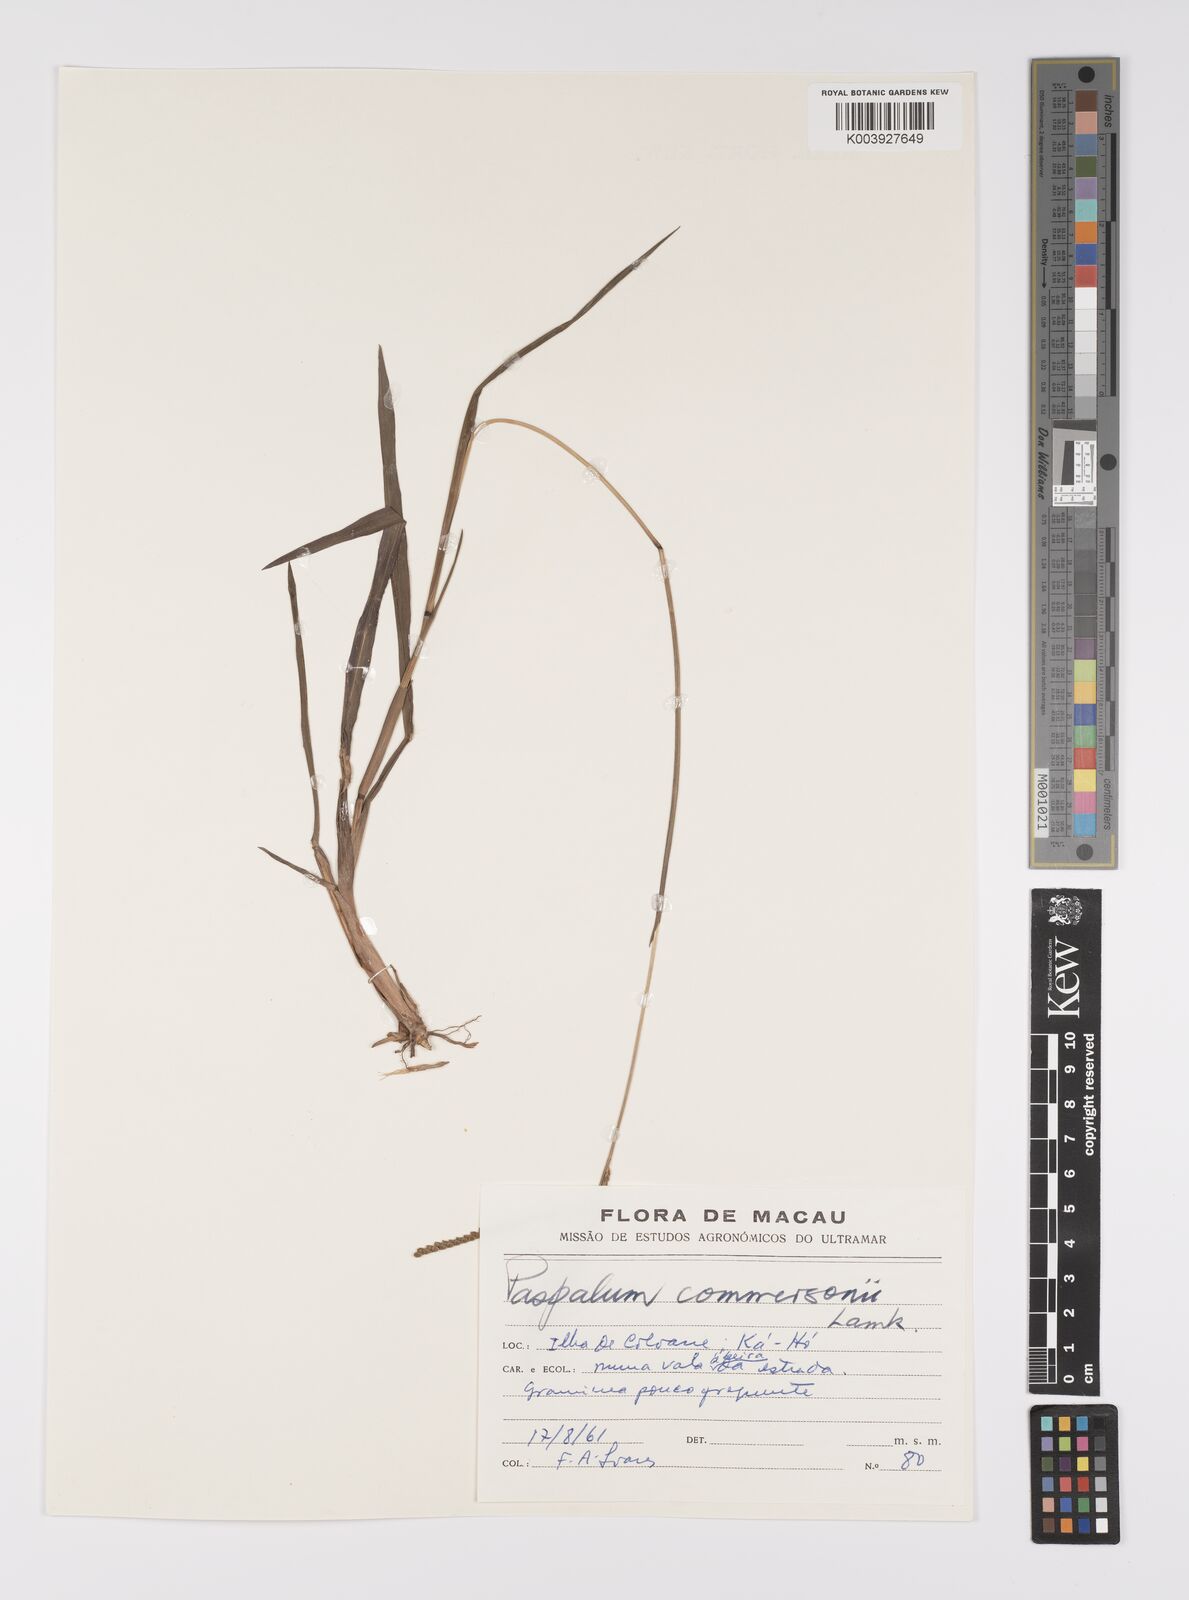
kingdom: Plantae
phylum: Tracheophyta
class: Liliopsida
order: Poales
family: Poaceae
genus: Paspalum
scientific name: Paspalum scrobiculatum
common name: Kodo millet
